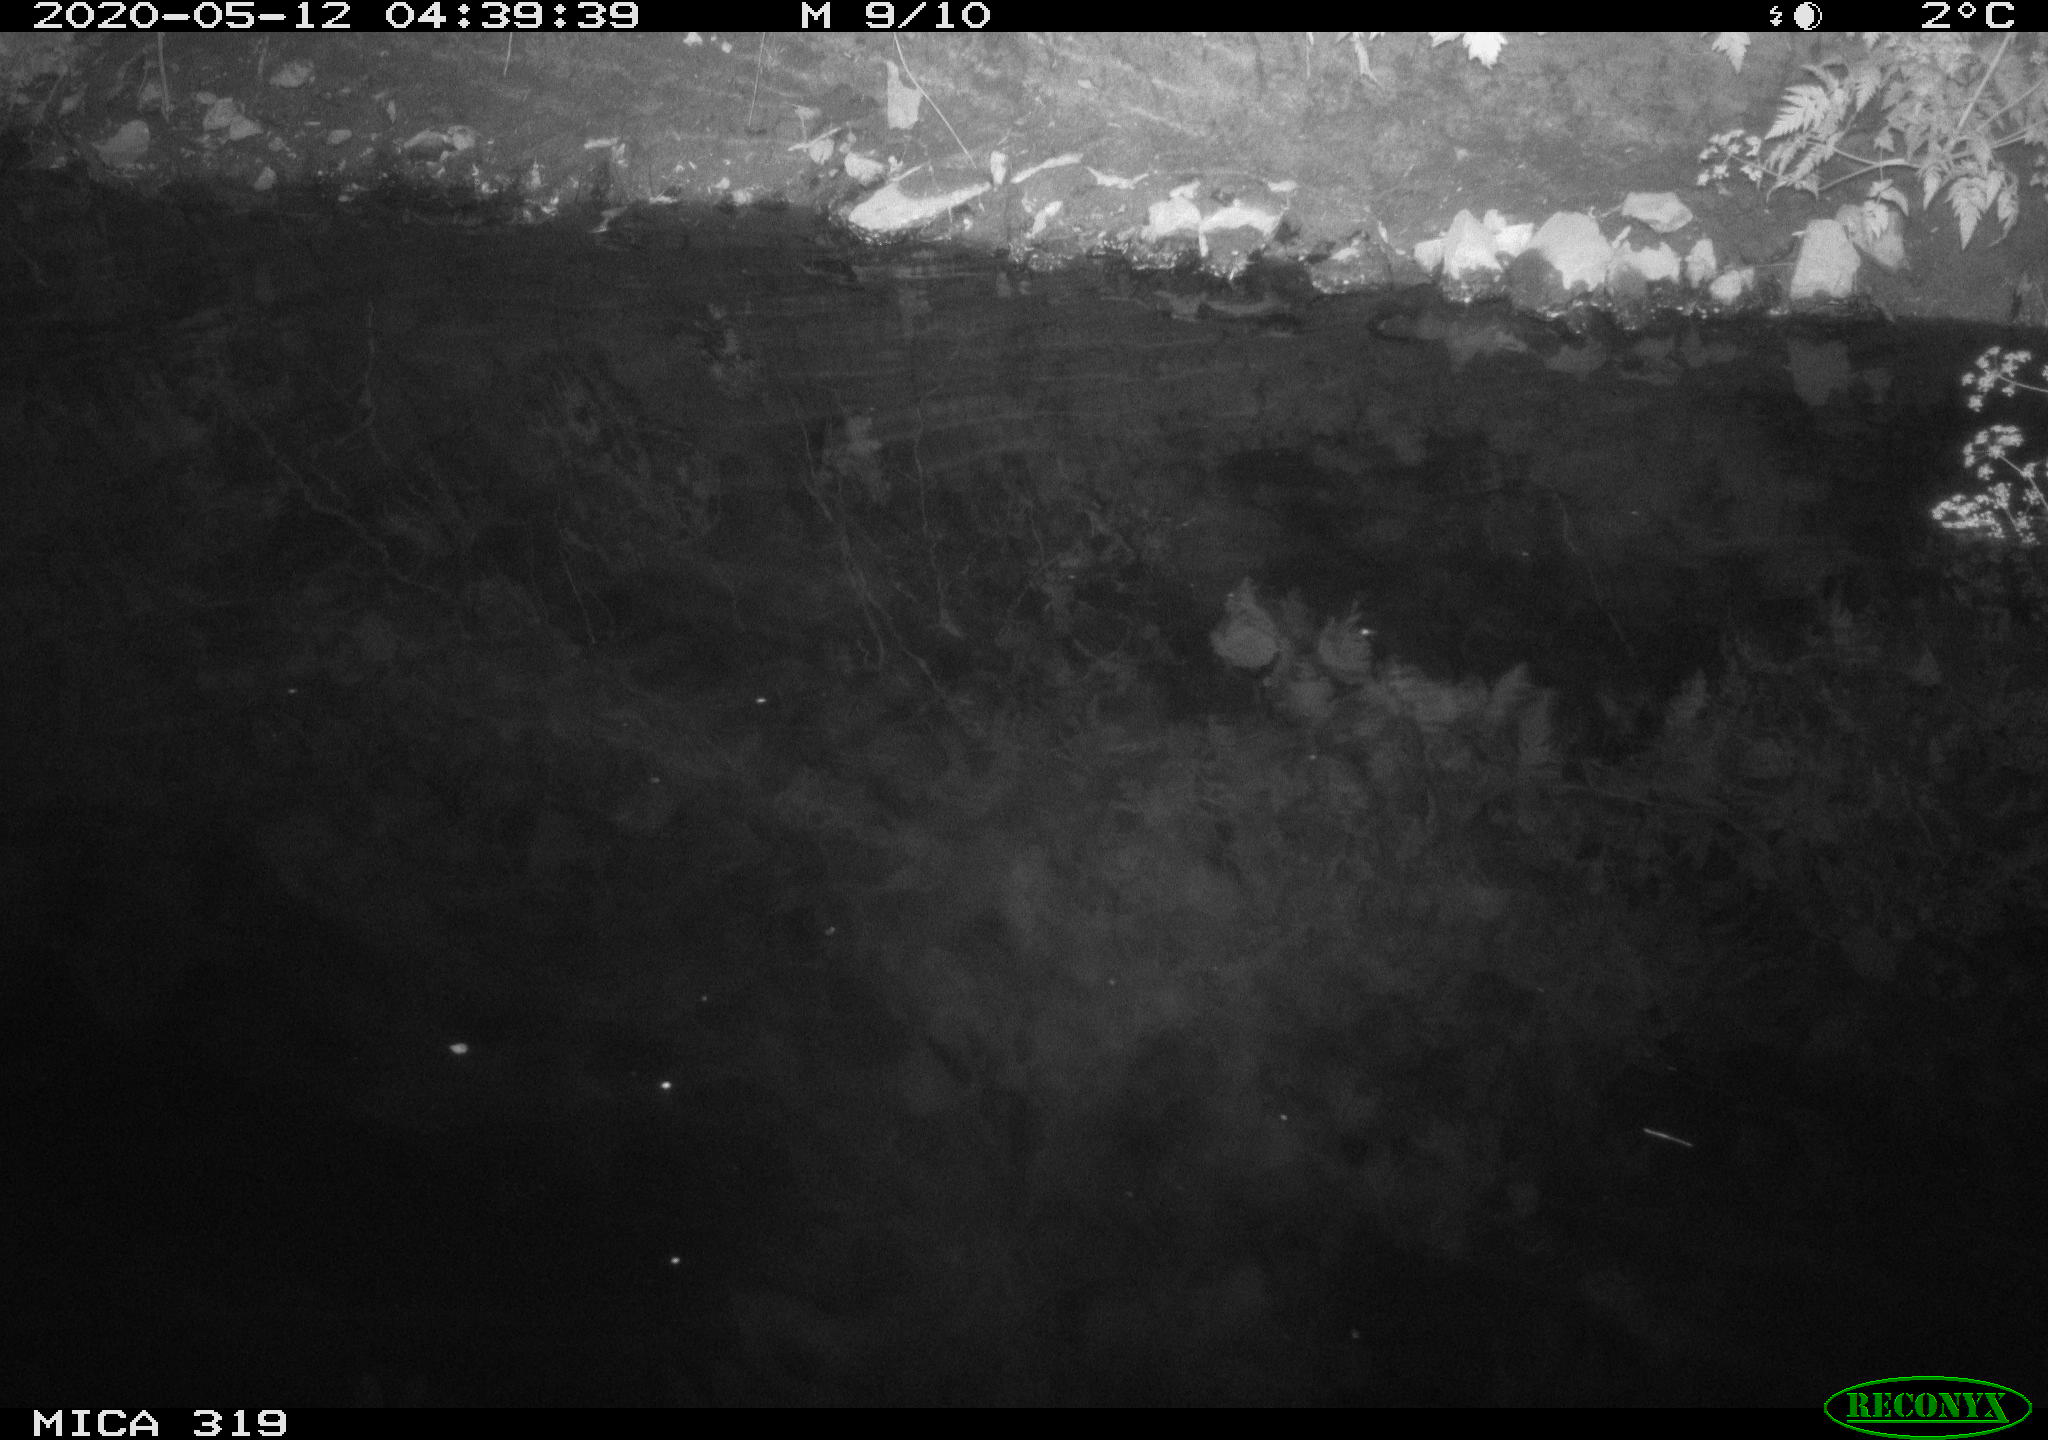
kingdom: Animalia
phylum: Chordata
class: Aves
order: Anseriformes
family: Anatidae
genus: Anas
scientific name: Anas platyrhynchos
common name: Mallard
